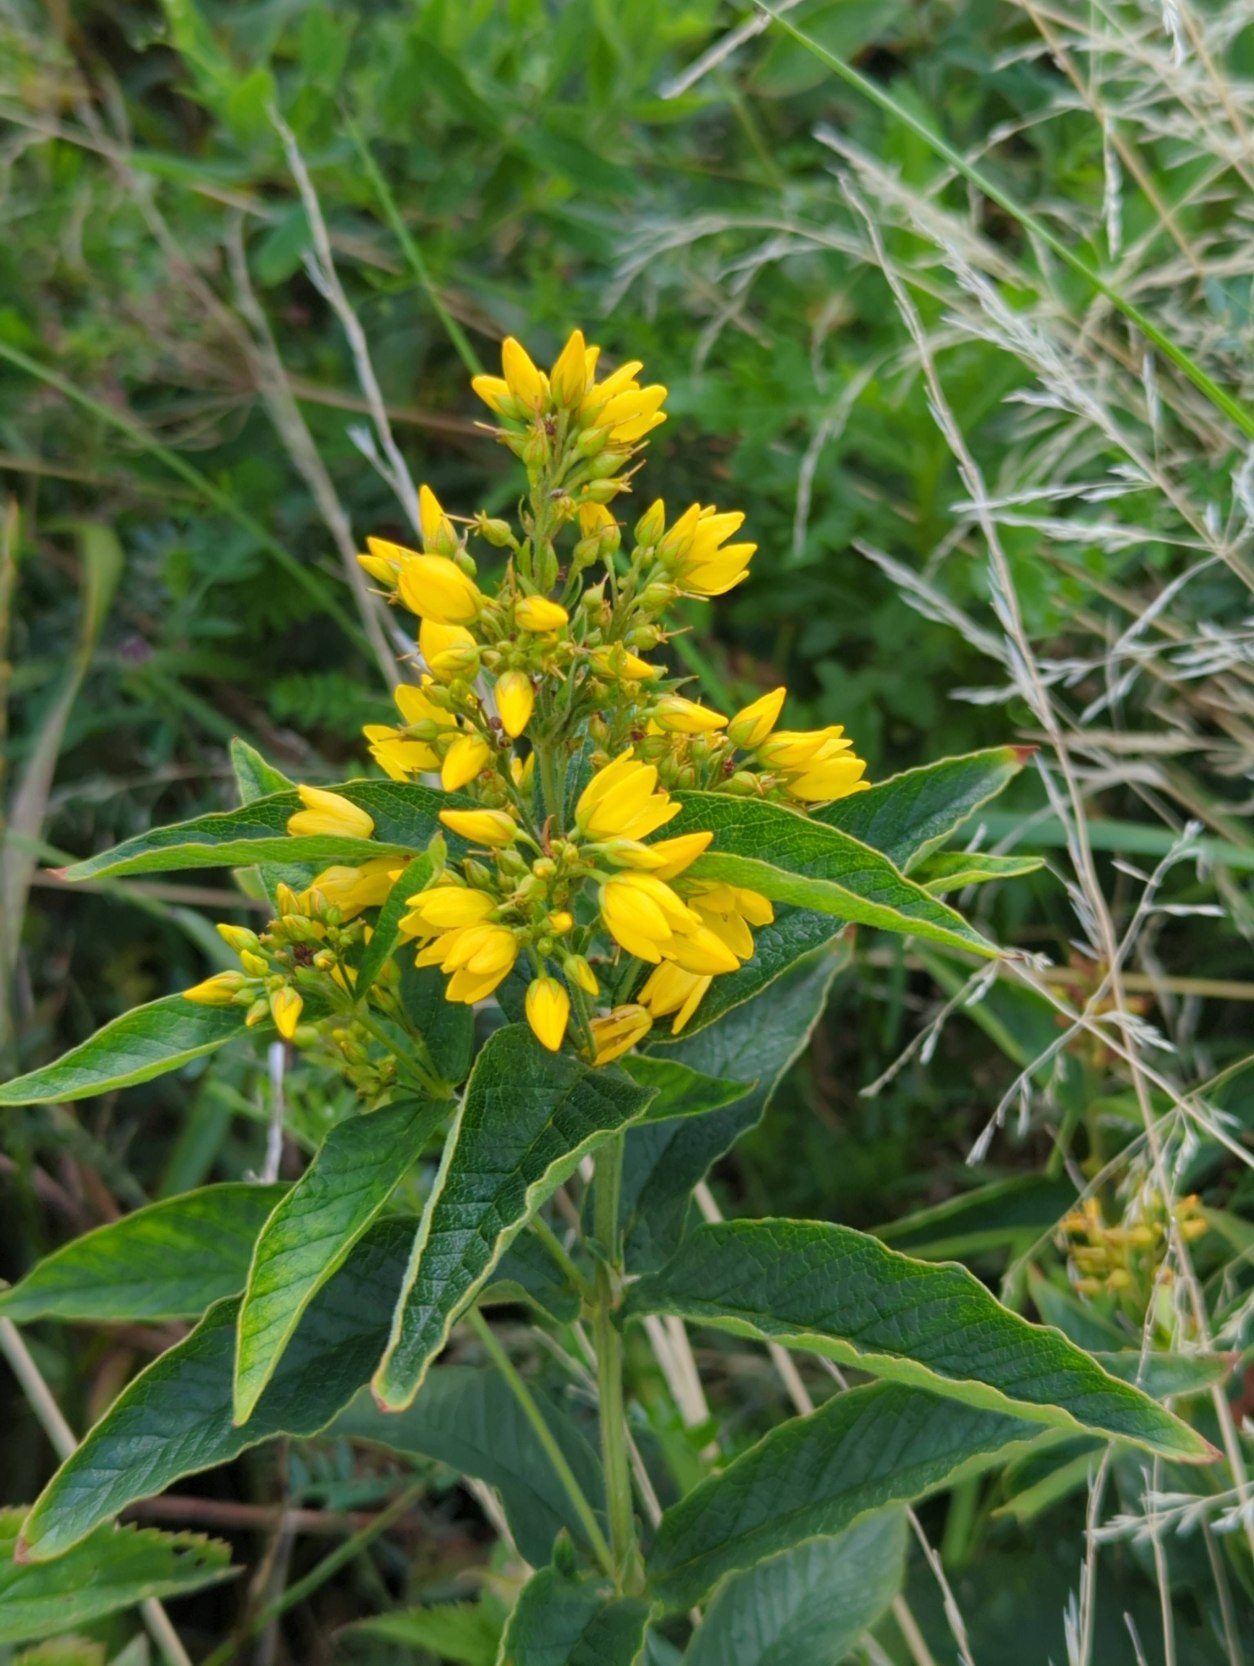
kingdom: Plantae
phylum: Tracheophyta
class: Magnoliopsida
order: Ericales
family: Primulaceae
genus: Lysimachia
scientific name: Lysimachia vulgaris
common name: Almindelig fredløs
